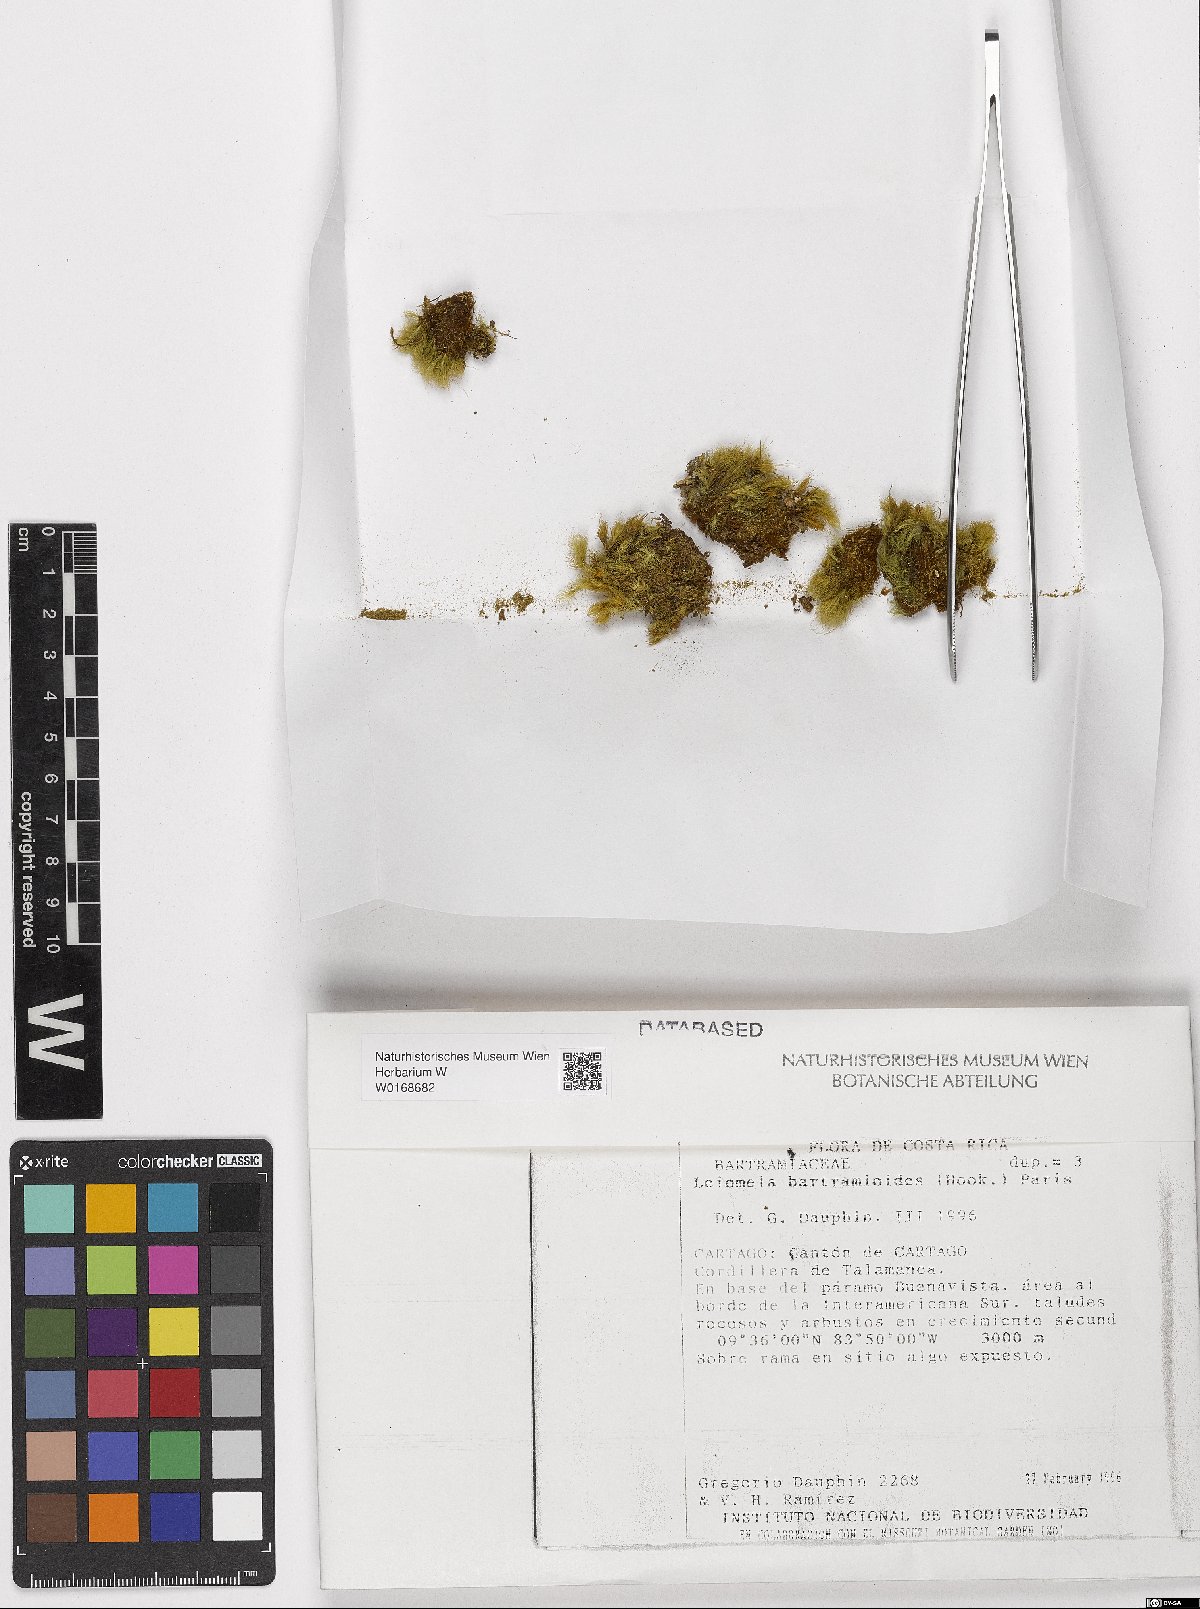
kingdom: Plantae
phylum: Bryophyta
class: Bryopsida
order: Bartramiales
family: Bartramiaceae
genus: Leiomela
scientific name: Leiomela bartramioides
